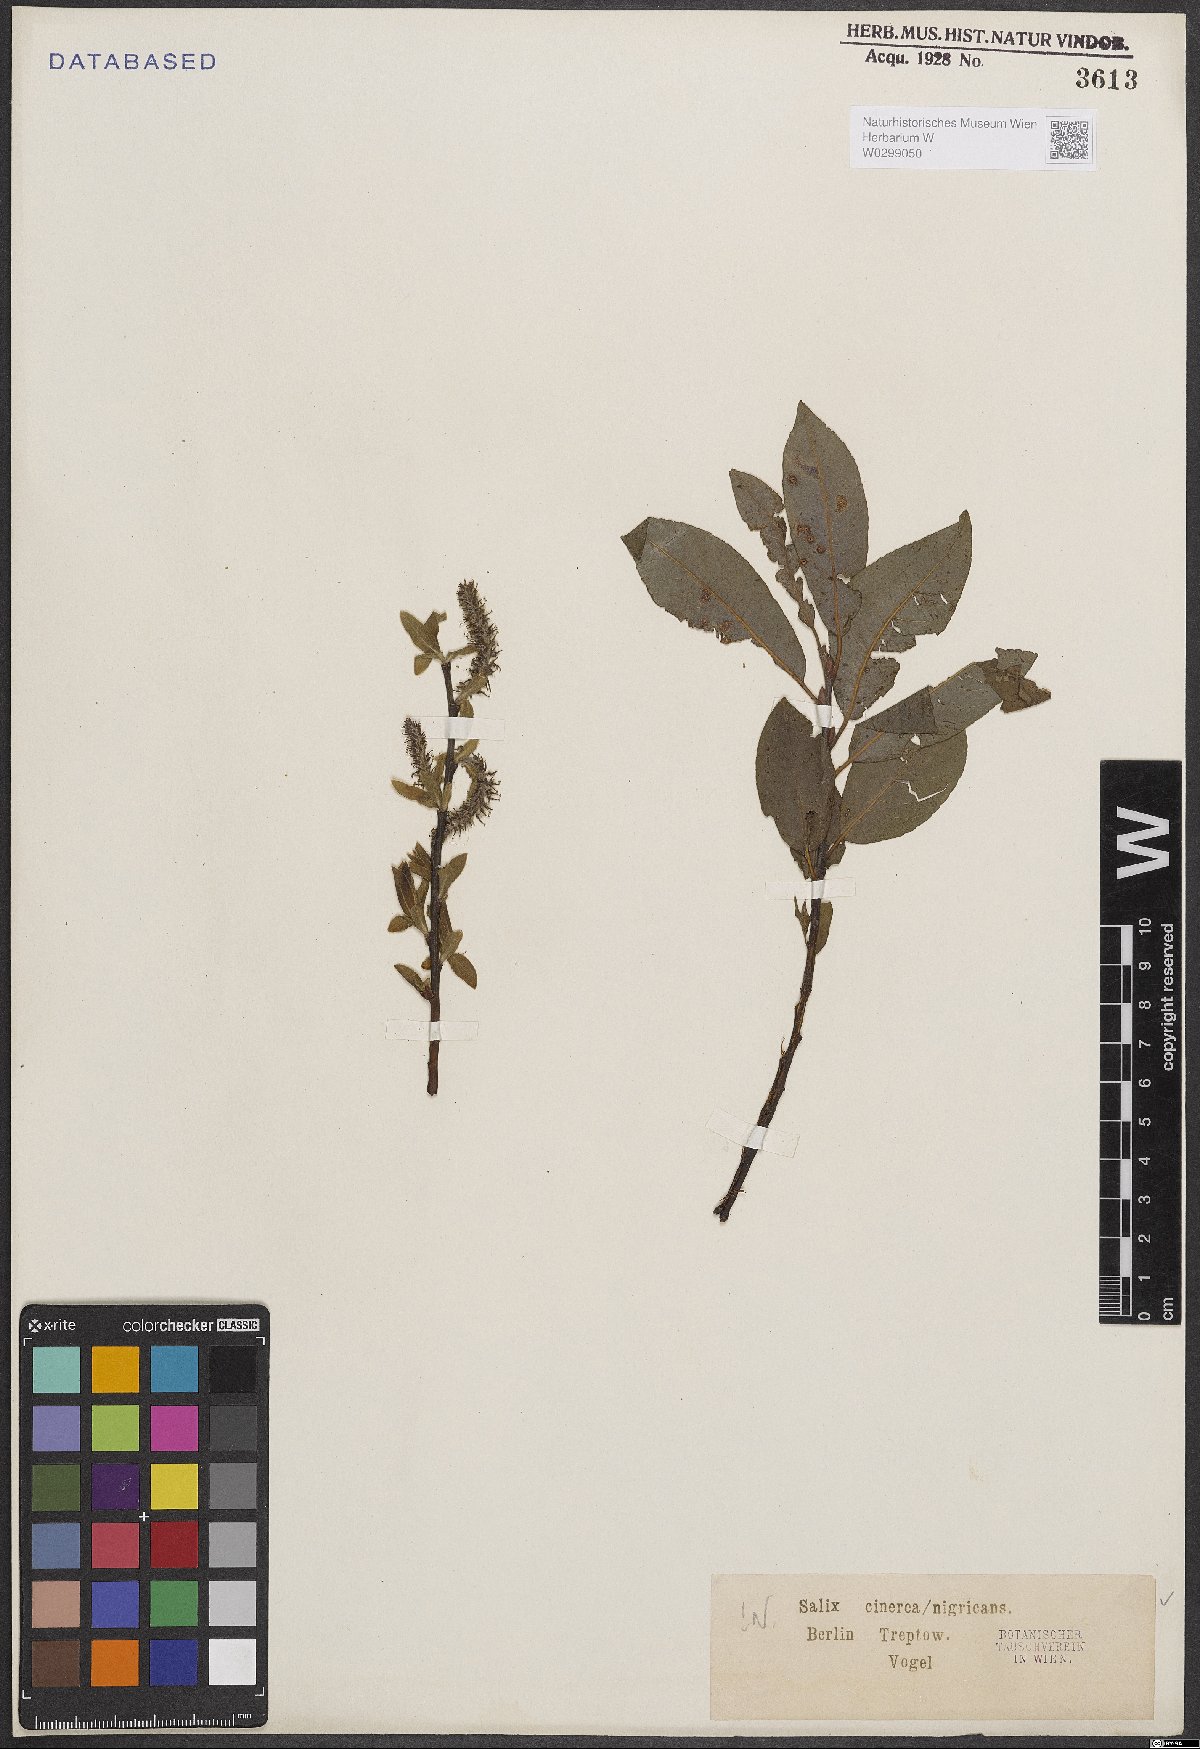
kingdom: Plantae
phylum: Tracheophyta
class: Magnoliopsida
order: Malpighiales
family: Salicaceae
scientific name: Salicaceae
